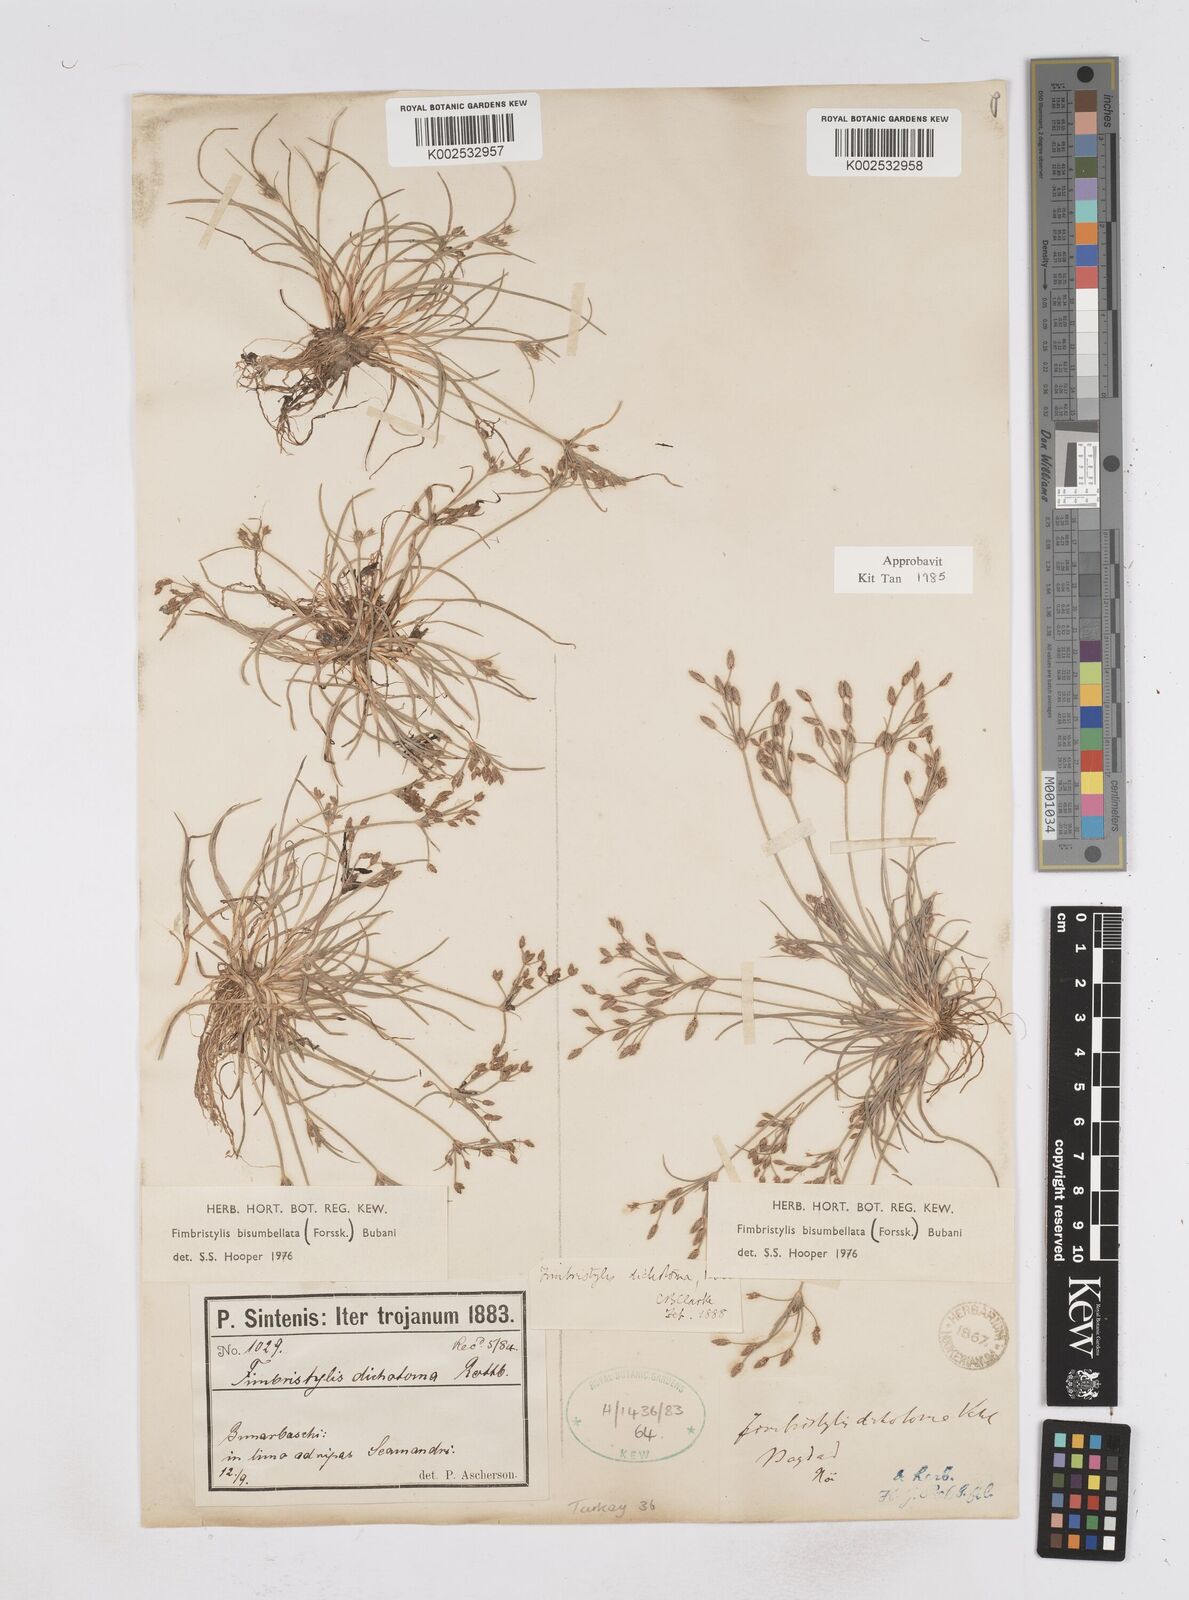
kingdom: Plantae
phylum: Tracheophyta
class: Liliopsida
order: Poales
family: Cyperaceae
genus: Fimbristylis
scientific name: Fimbristylis bisumbellata
